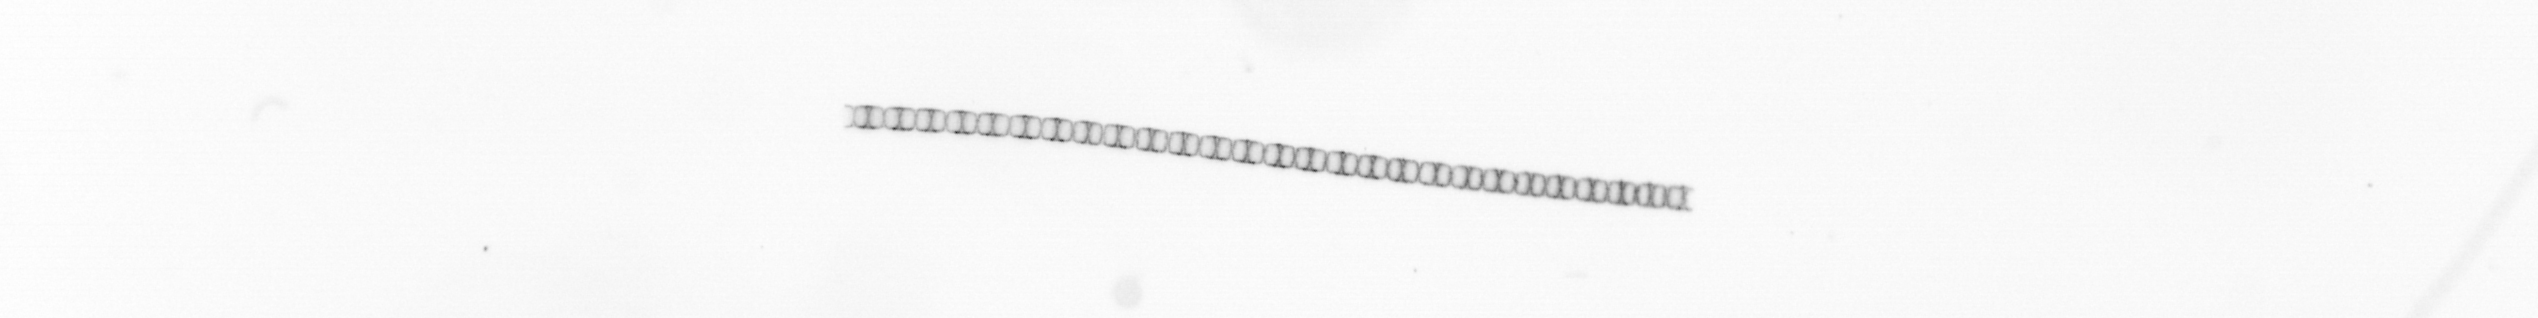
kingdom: Chromista
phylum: Ochrophyta
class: Bacillariophyceae
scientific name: Bacillariophyceae
